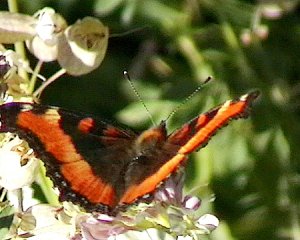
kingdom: Animalia
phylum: Arthropoda
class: Insecta
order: Lepidoptera
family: Nymphalidae
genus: Aglais
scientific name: Aglais milberti
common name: Milbert's Tortoiseshell
